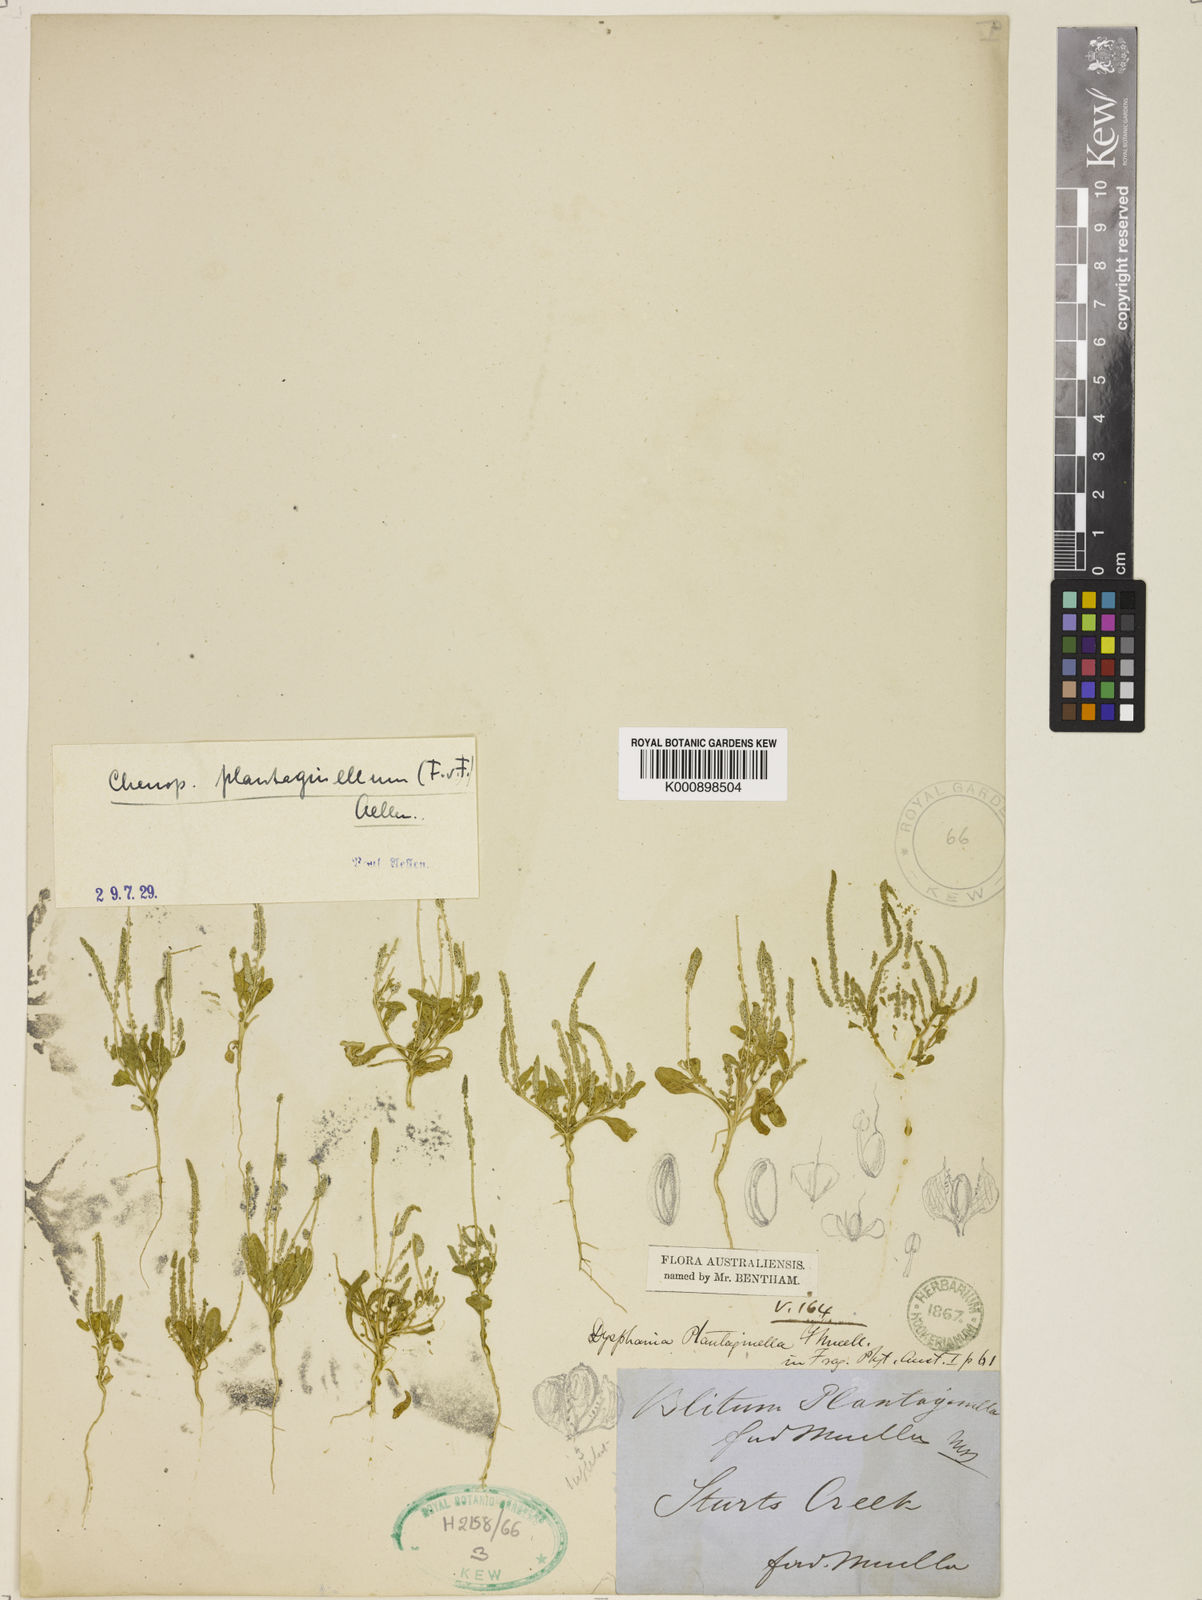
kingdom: Plantae
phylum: Tracheophyta
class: Magnoliopsida
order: Caryophyllales
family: Amaranthaceae
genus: Dysphania
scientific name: Dysphania plantaginella
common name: Dwarf-flower
